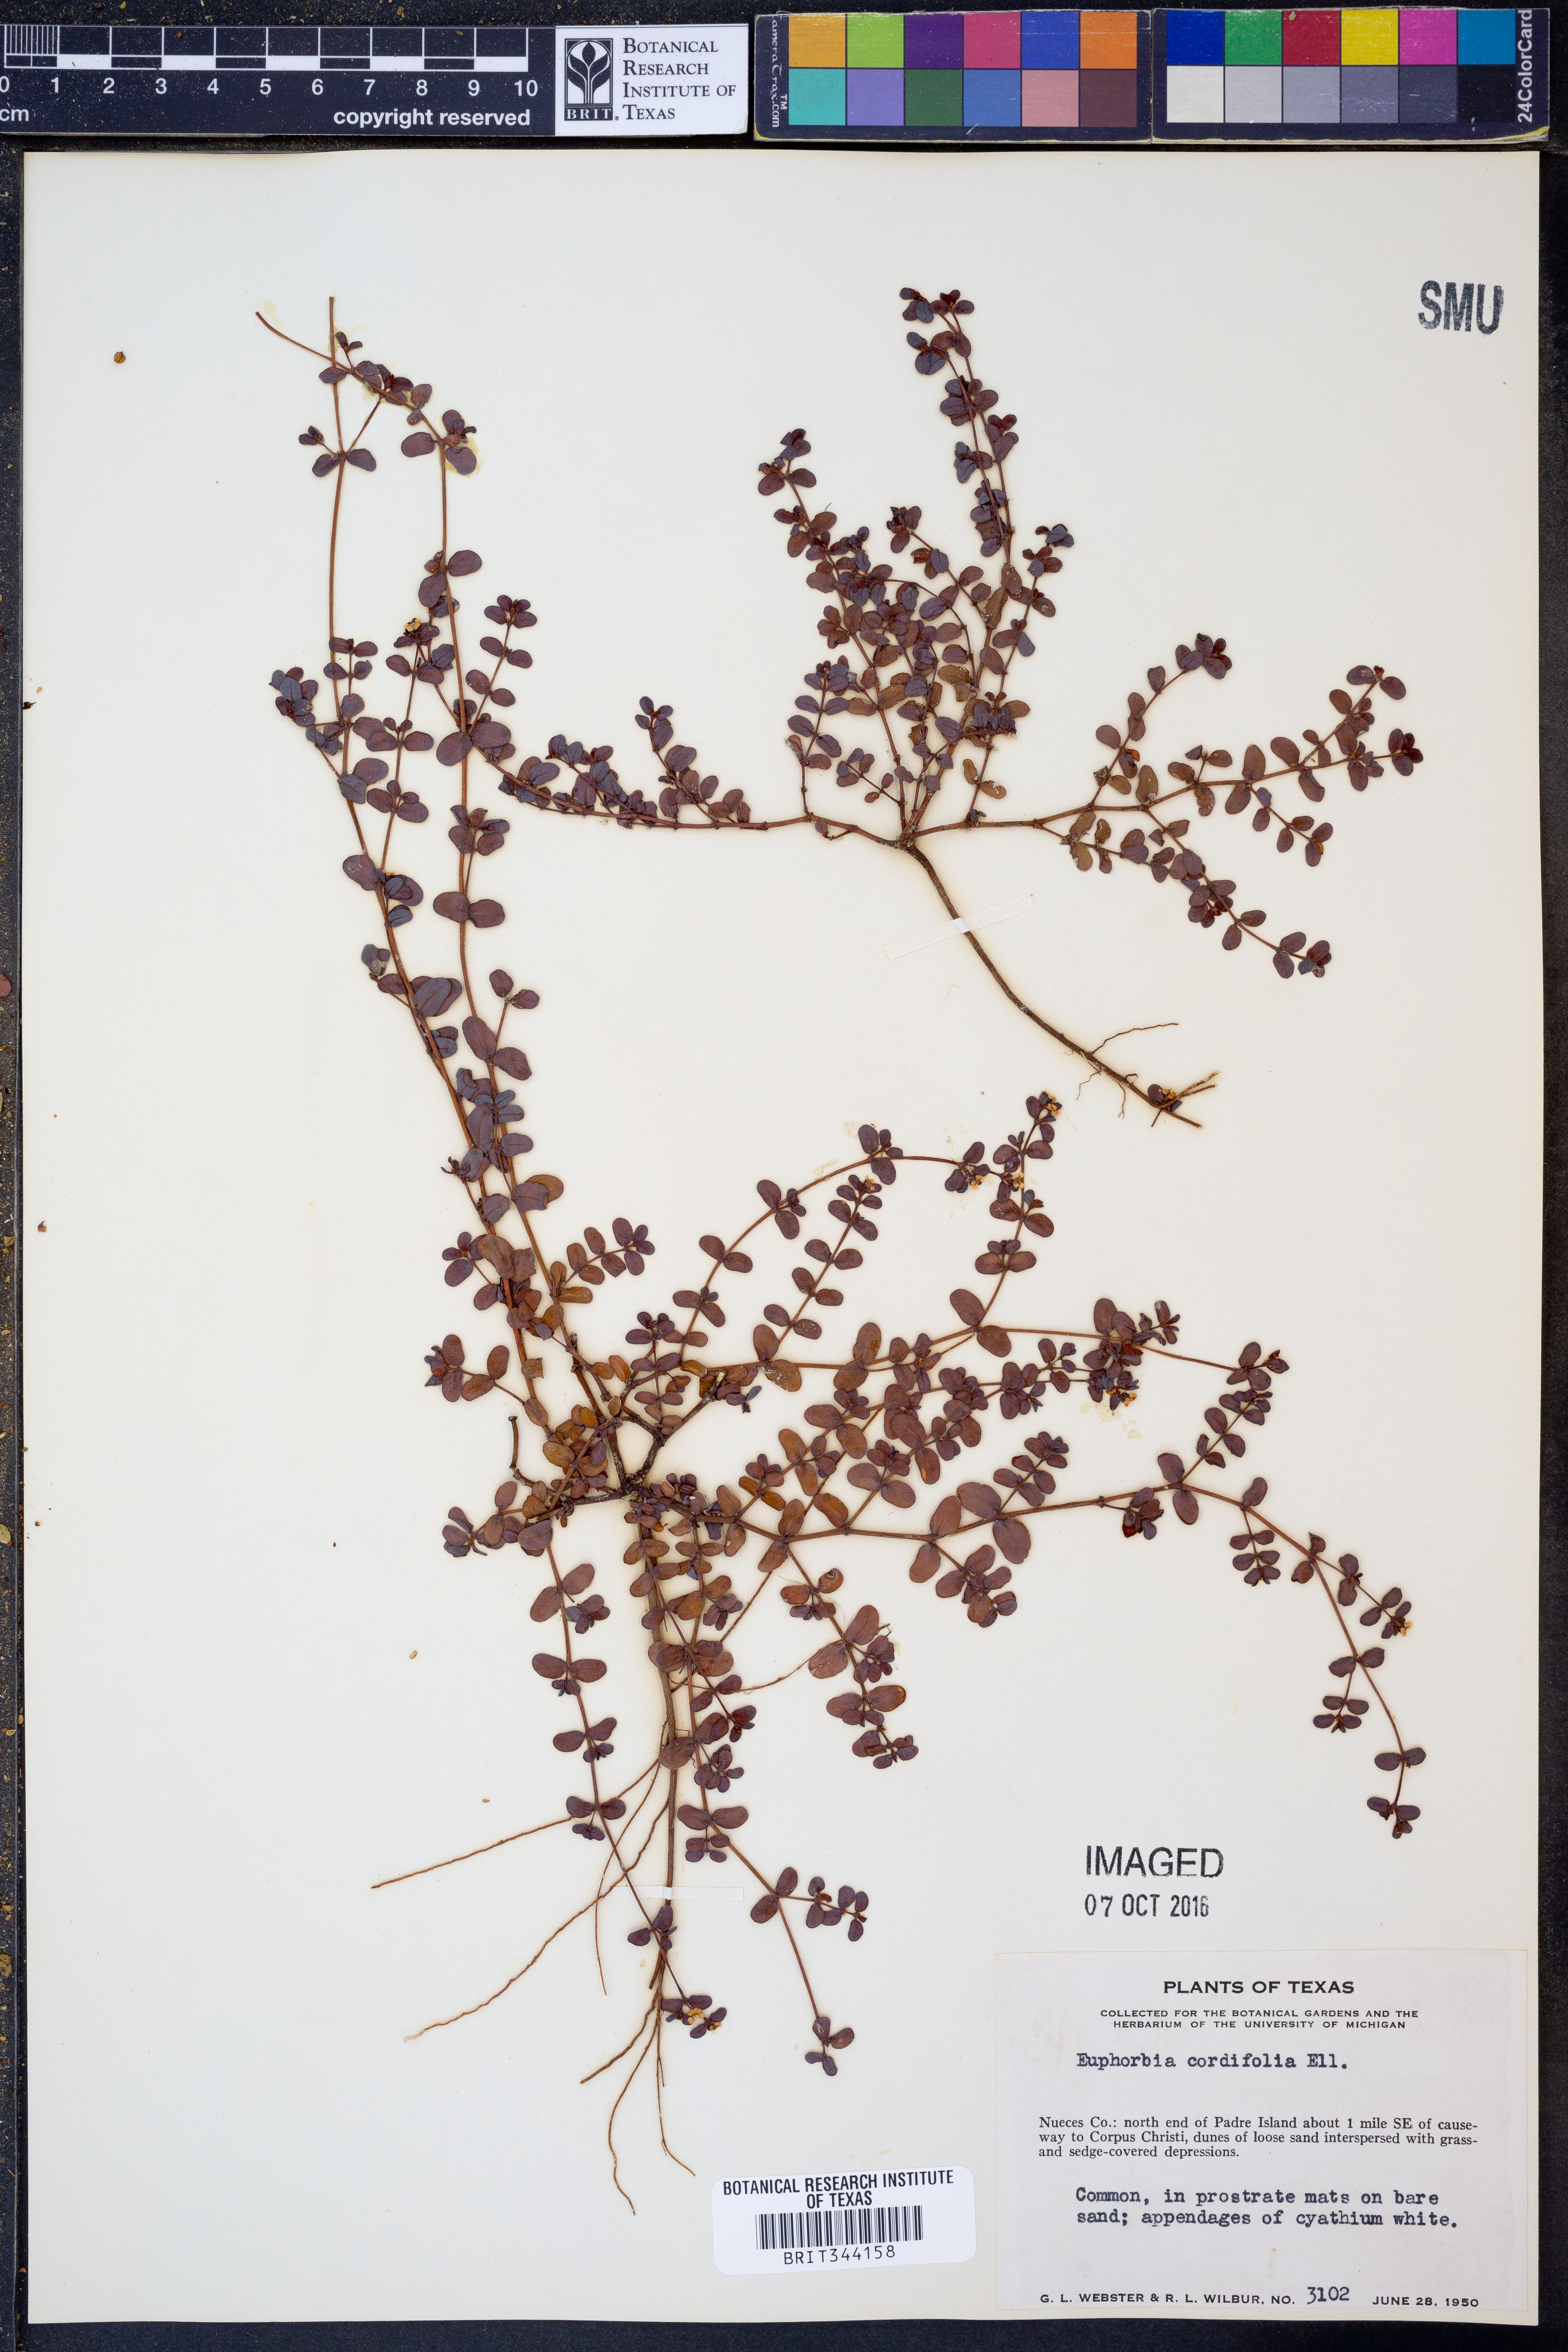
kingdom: Plantae
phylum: Tracheophyta
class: Magnoliopsida
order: Malpighiales
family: Euphorbiaceae
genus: Euphorbia
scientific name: Euphorbia cordifolia
